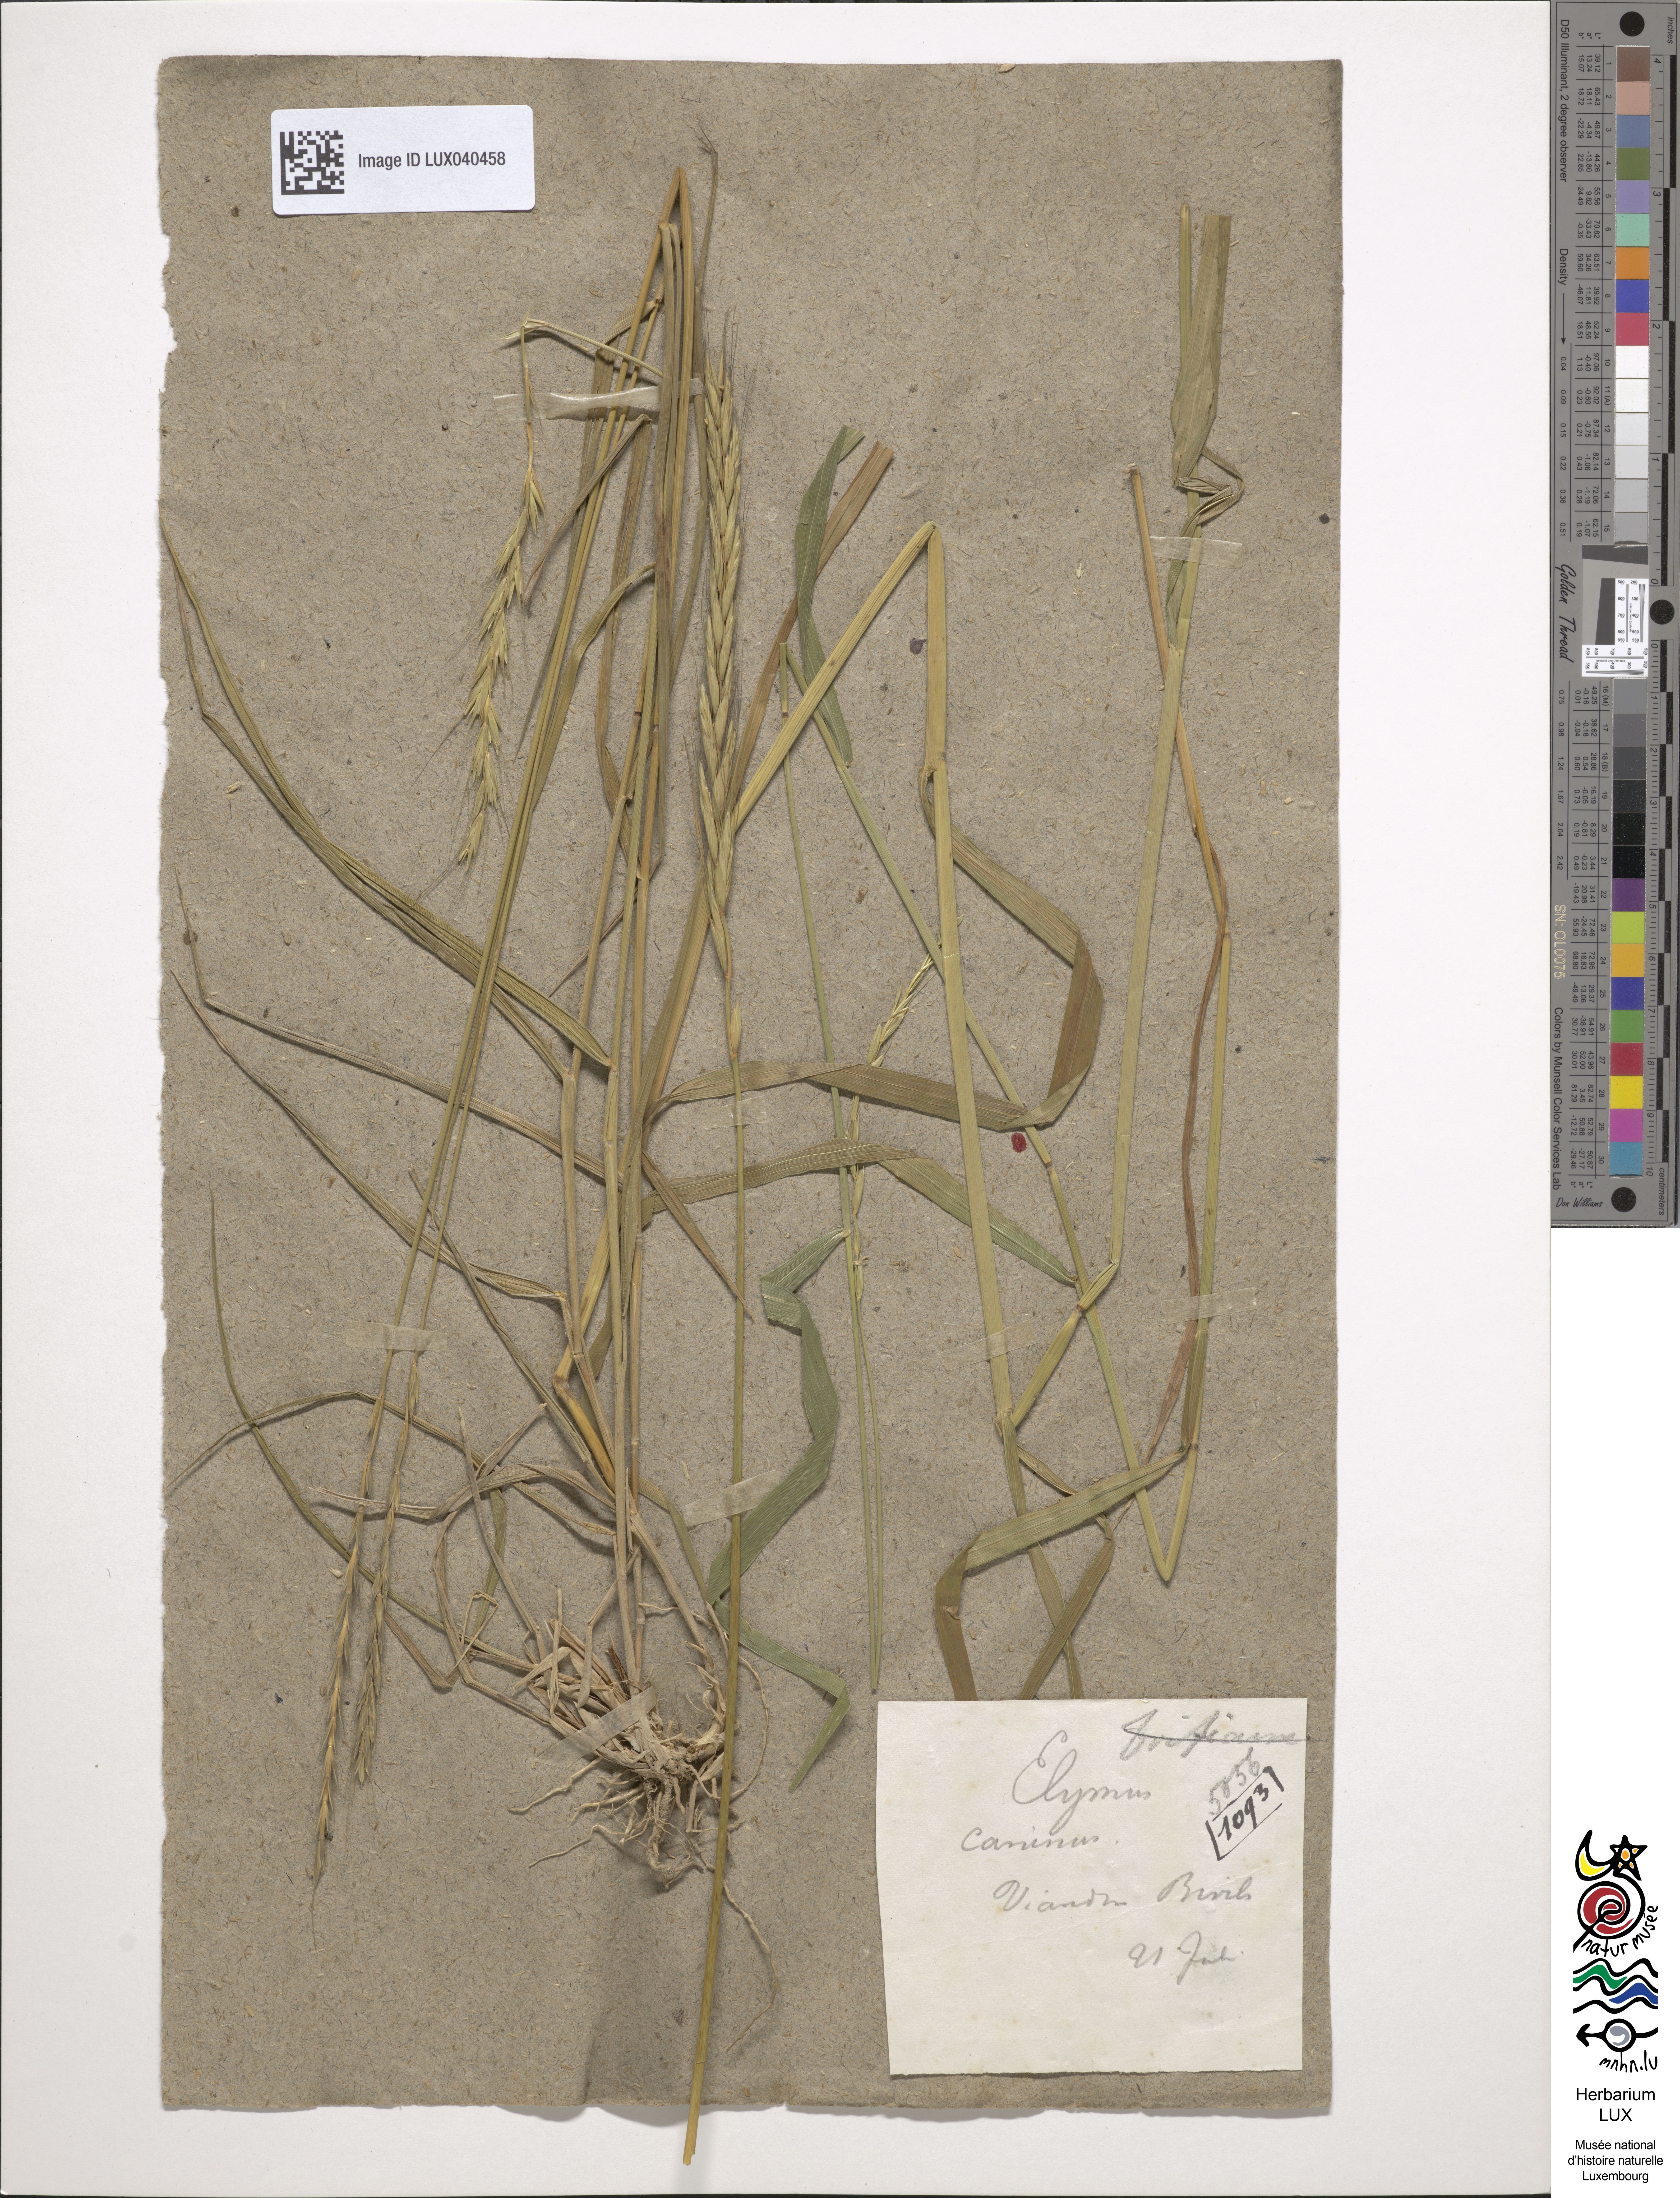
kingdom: Plantae
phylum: Tracheophyta
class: Liliopsida
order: Poales
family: Poaceae
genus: Elymus
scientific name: Elymus caninus
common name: Bearded couch
